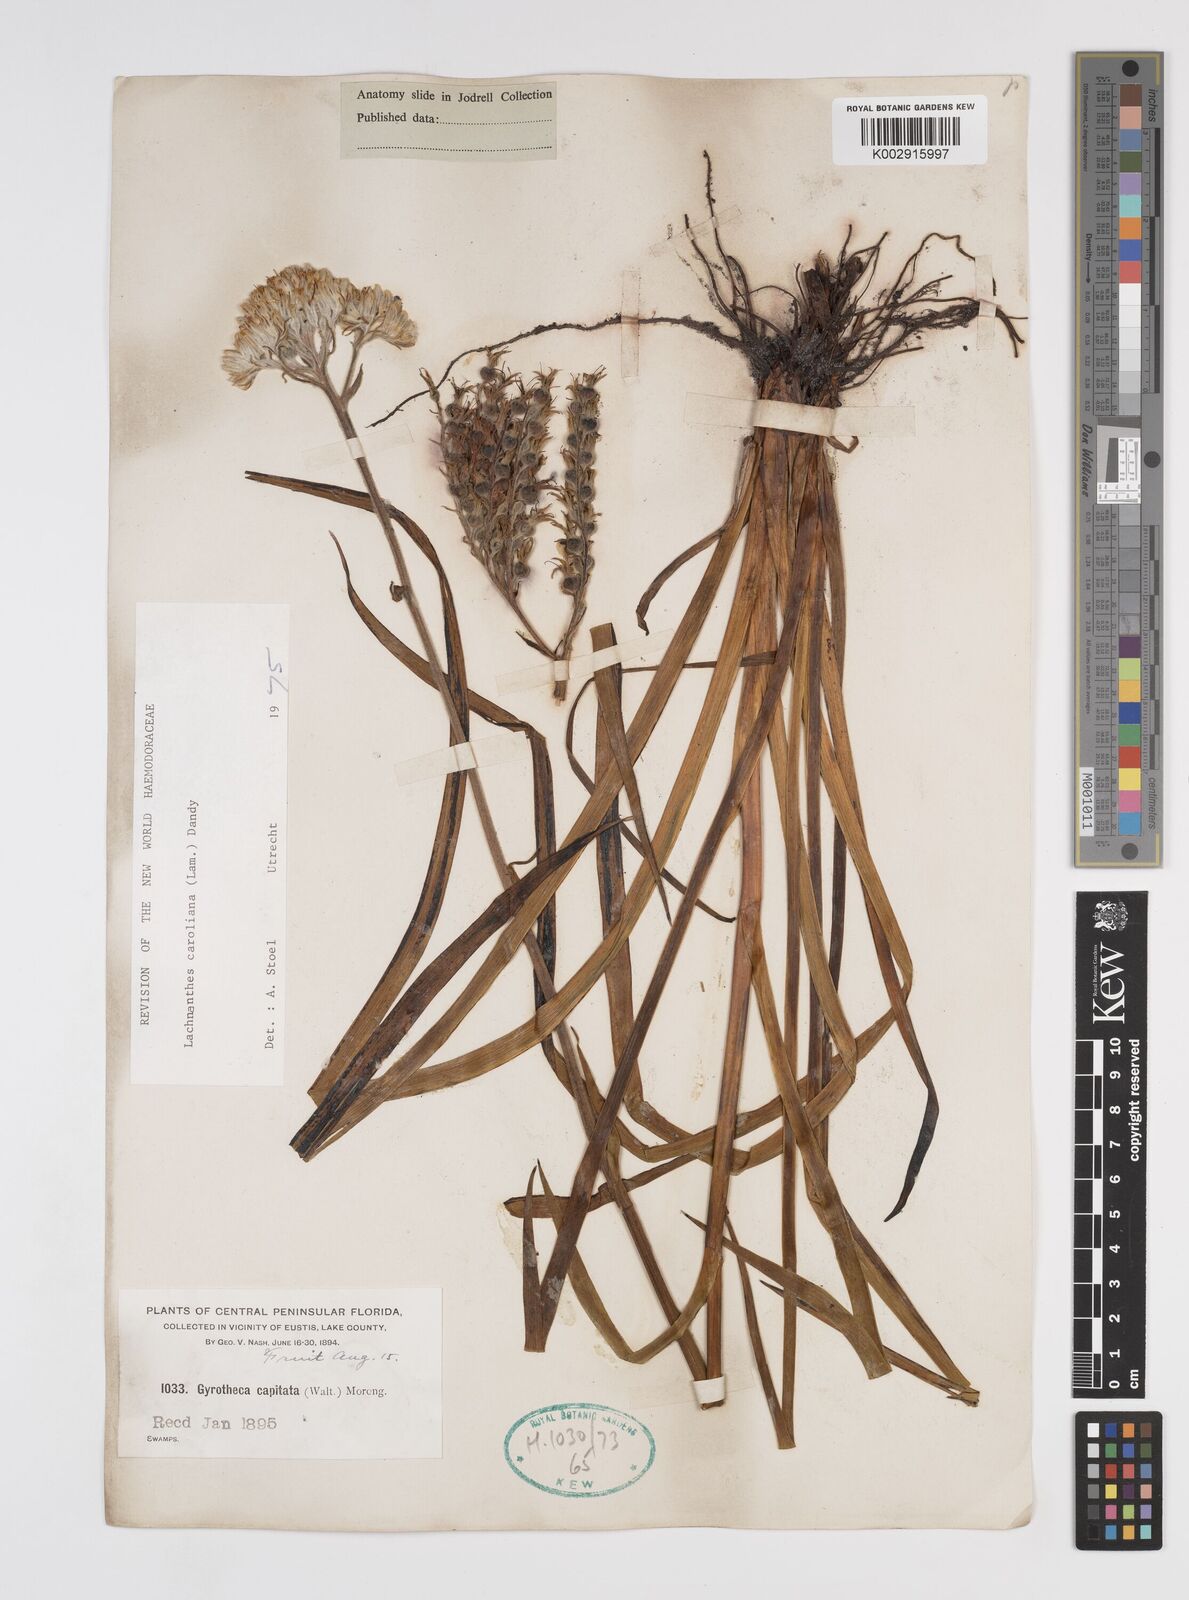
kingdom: Plantae
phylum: Tracheophyta
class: Liliopsida
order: Commelinales
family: Haemodoraceae
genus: Lachnanthes
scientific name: Lachnanthes caroliniana
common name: Carolina redroot
